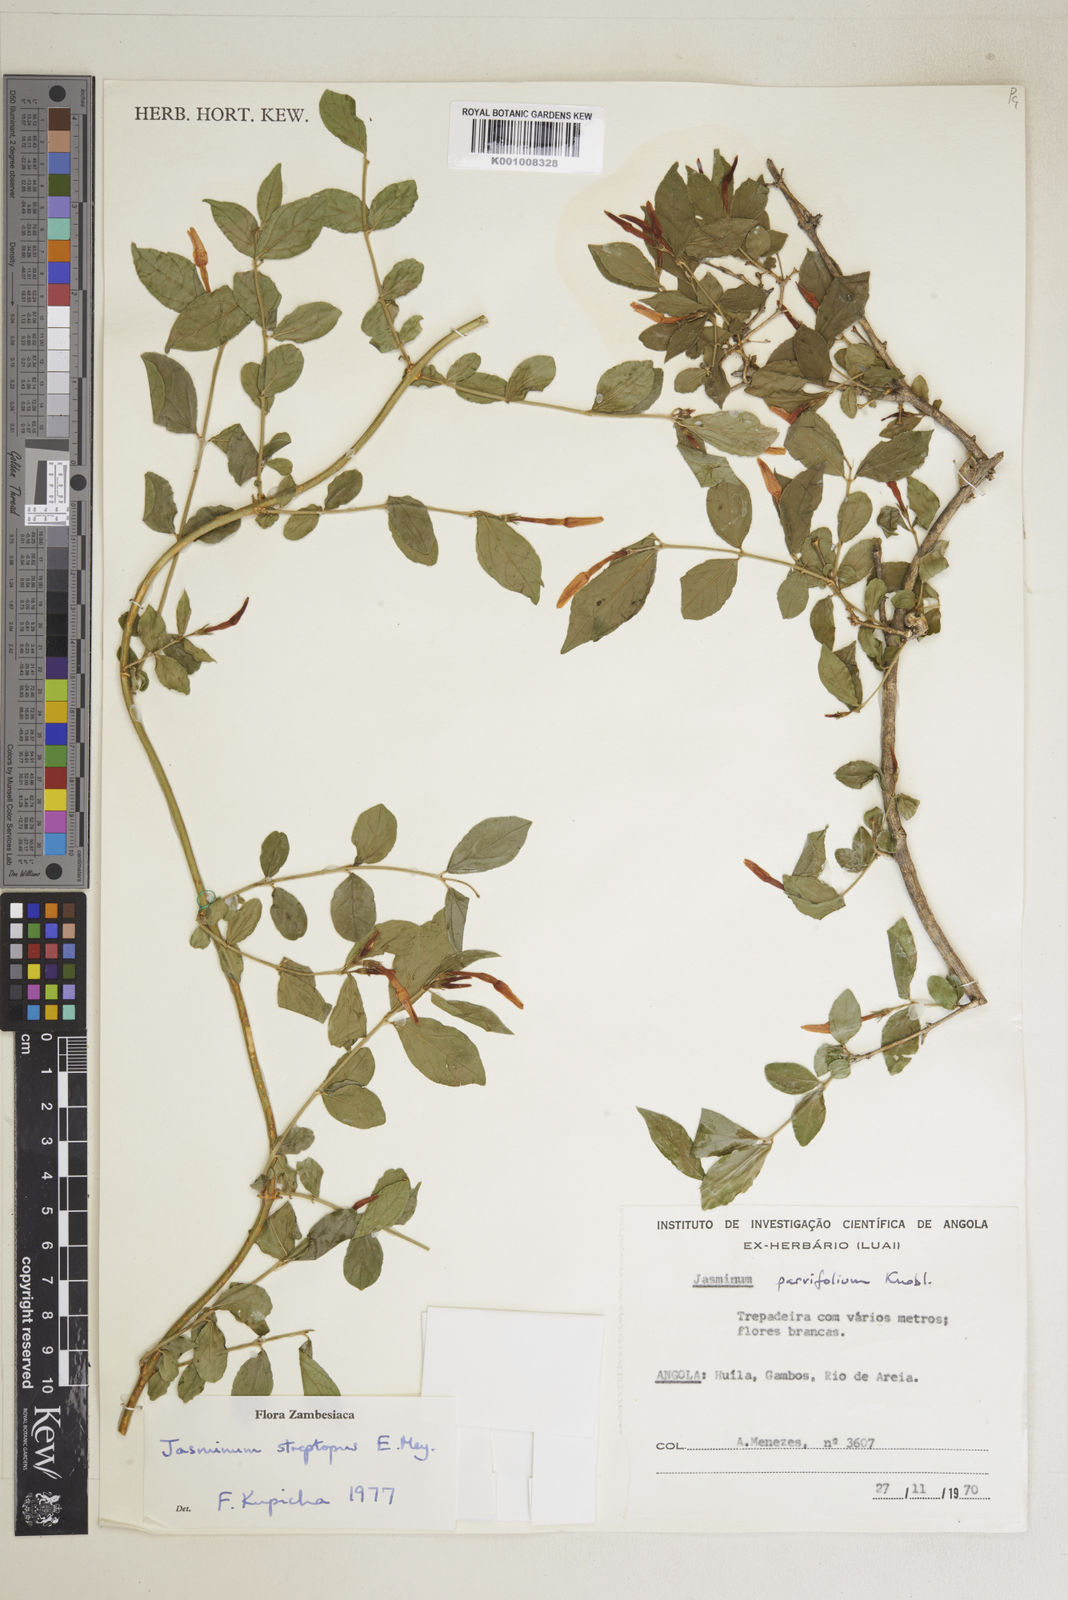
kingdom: Plantae
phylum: Tracheophyta
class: Magnoliopsida
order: Lamiales
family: Oleaceae
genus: Jasminum
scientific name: Jasminum streptopus
